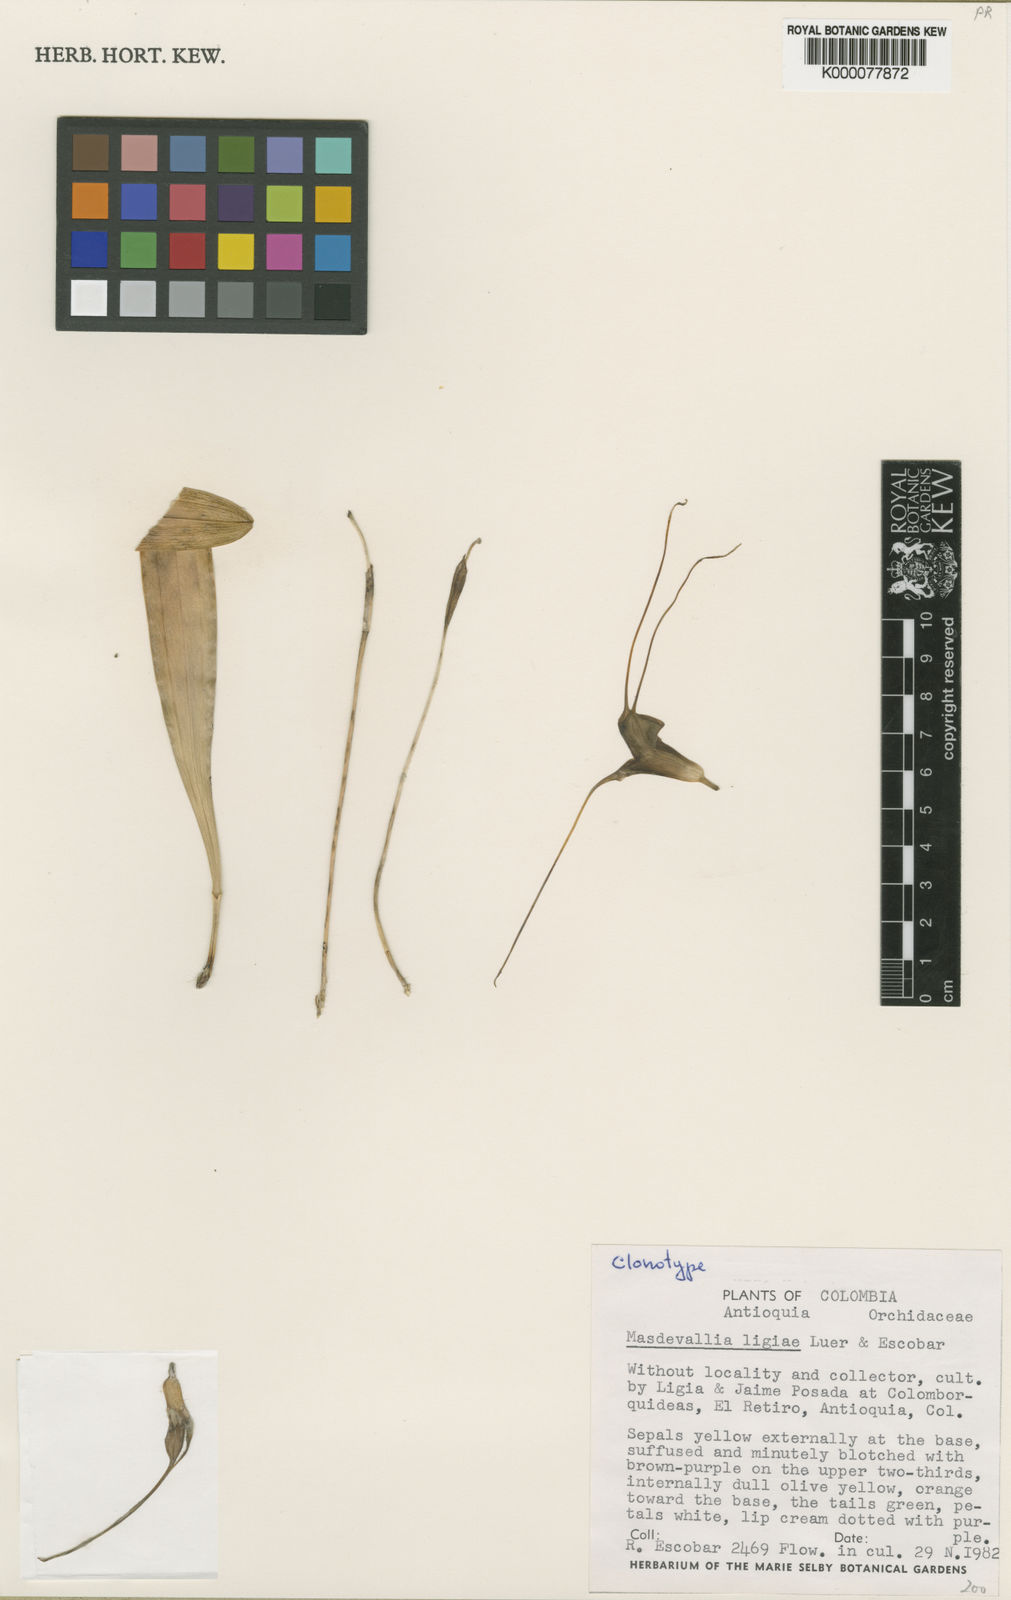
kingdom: Plantae
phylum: Tracheophyta
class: Liliopsida
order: Asparagales
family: Orchidaceae
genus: Masdevallia
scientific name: Masdevallia ligiae
